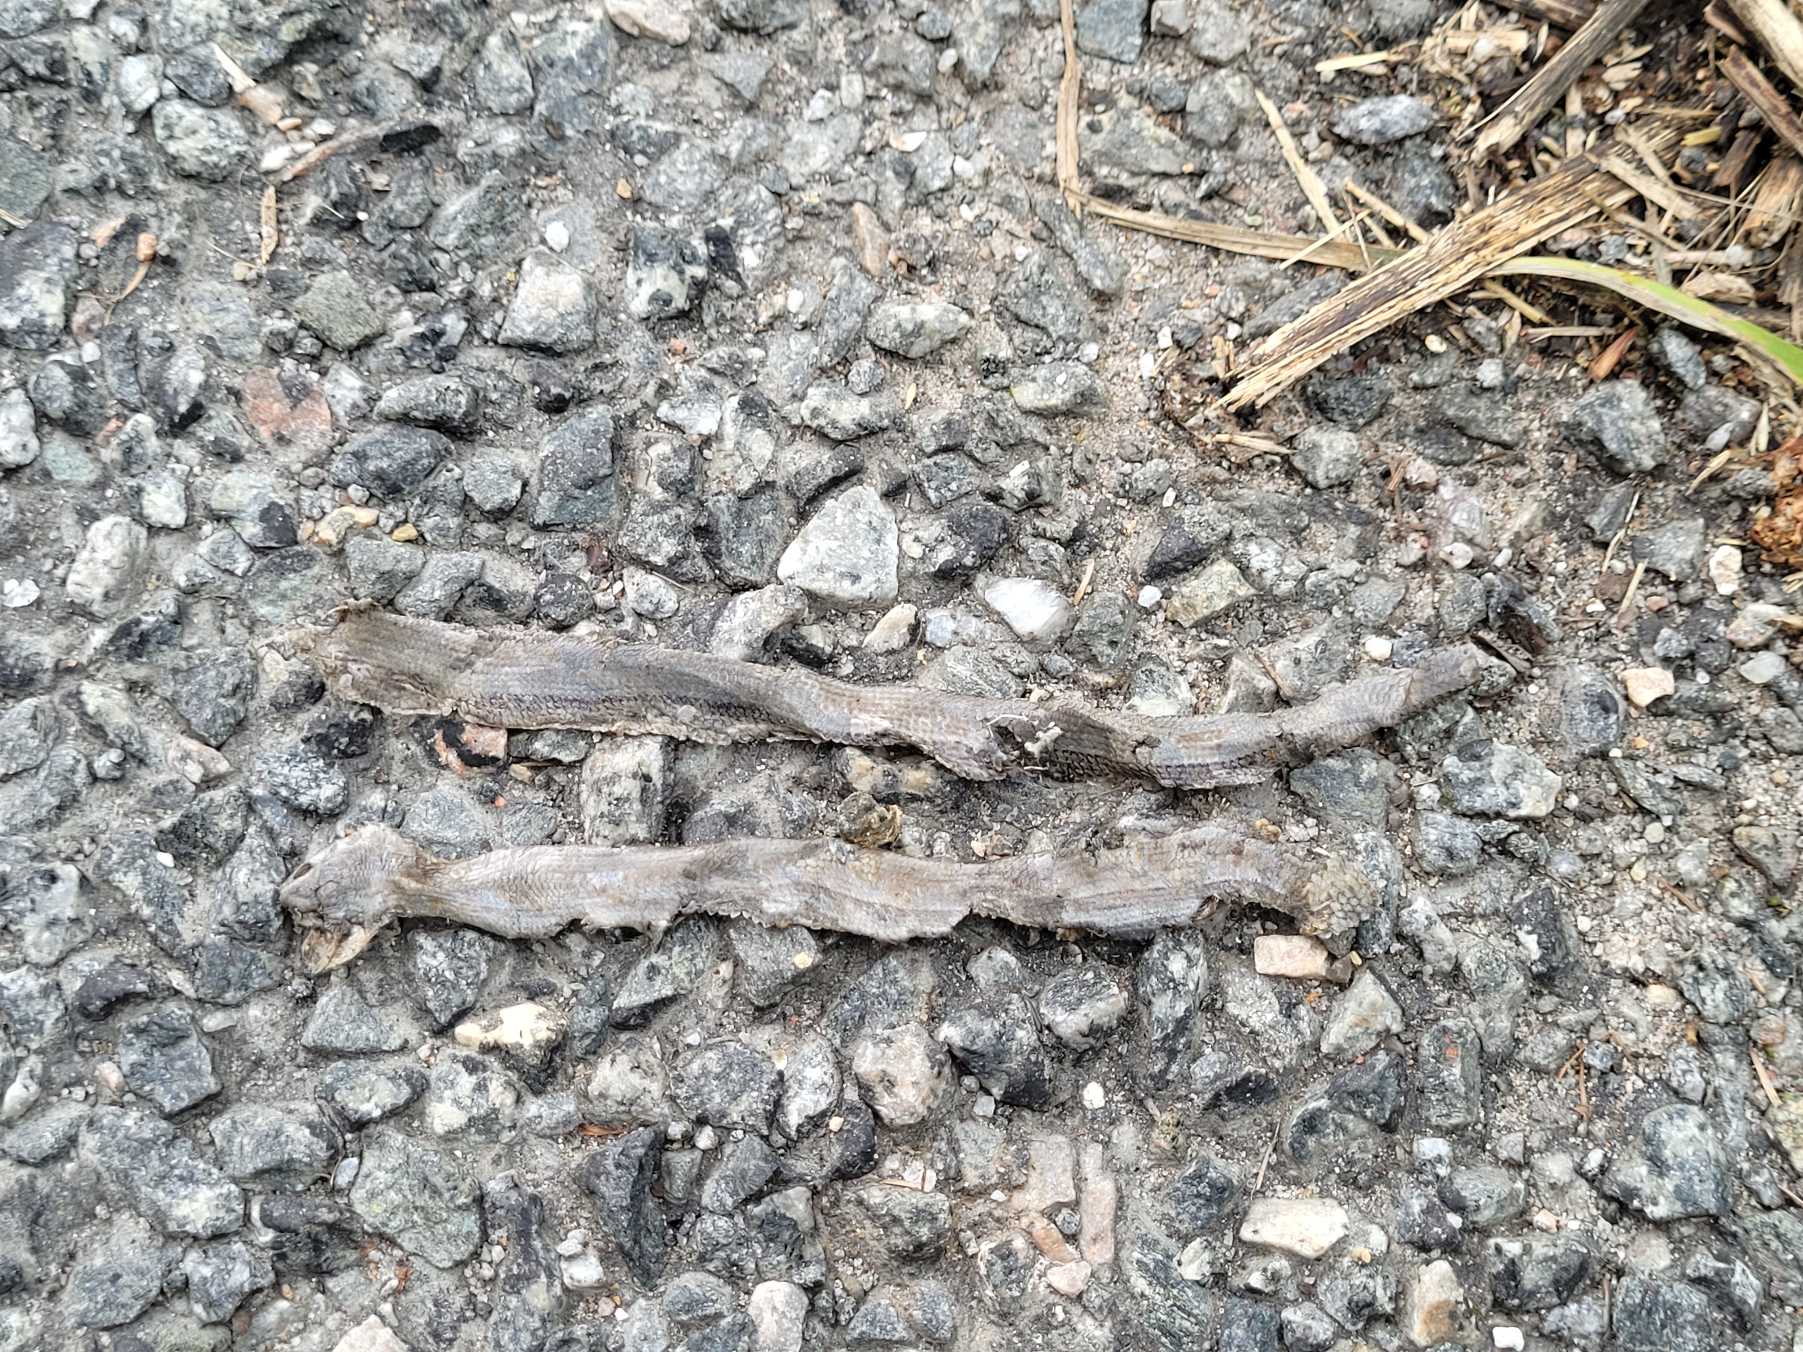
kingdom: Animalia
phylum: Chordata
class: Squamata
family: Anguidae
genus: Anguis
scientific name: Anguis fragilis
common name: Stålorm
